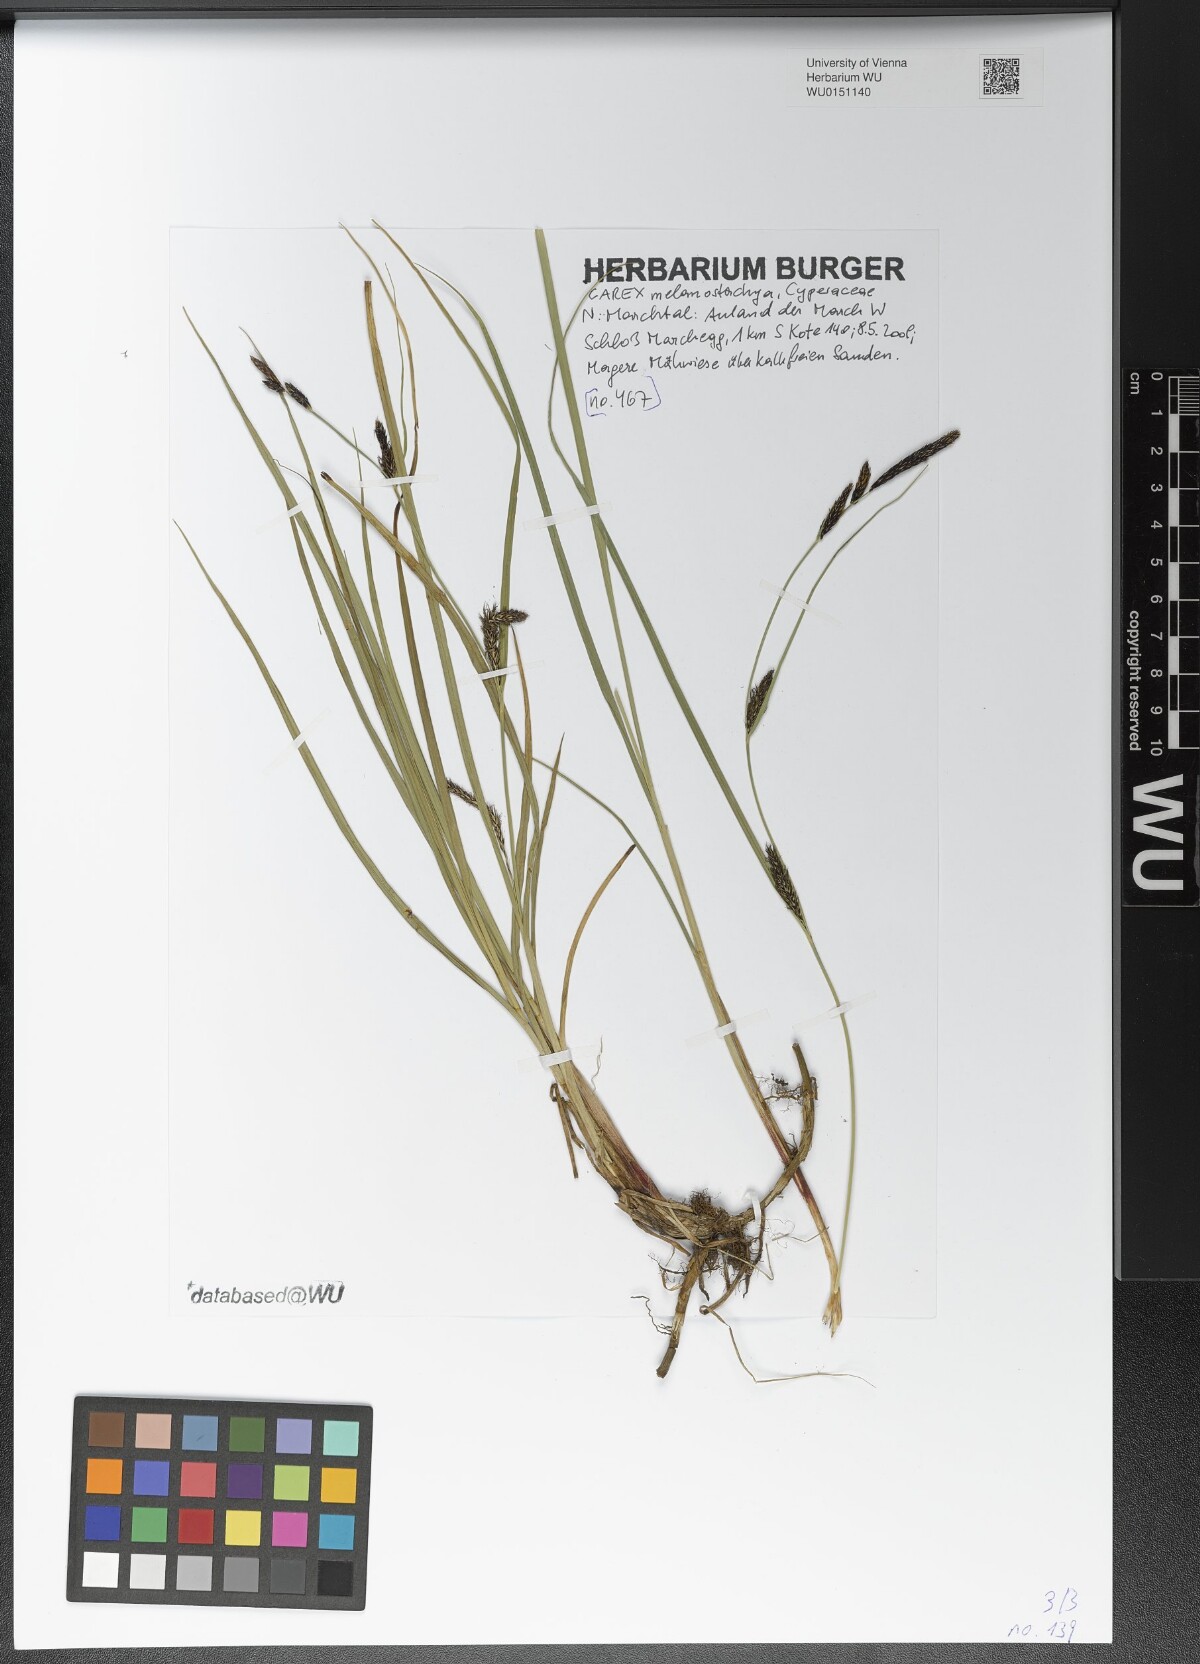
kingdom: Plantae
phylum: Tracheophyta
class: Liliopsida
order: Poales
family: Cyperaceae
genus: Carex
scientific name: Carex melanostachya
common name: Black-spiked sedge
